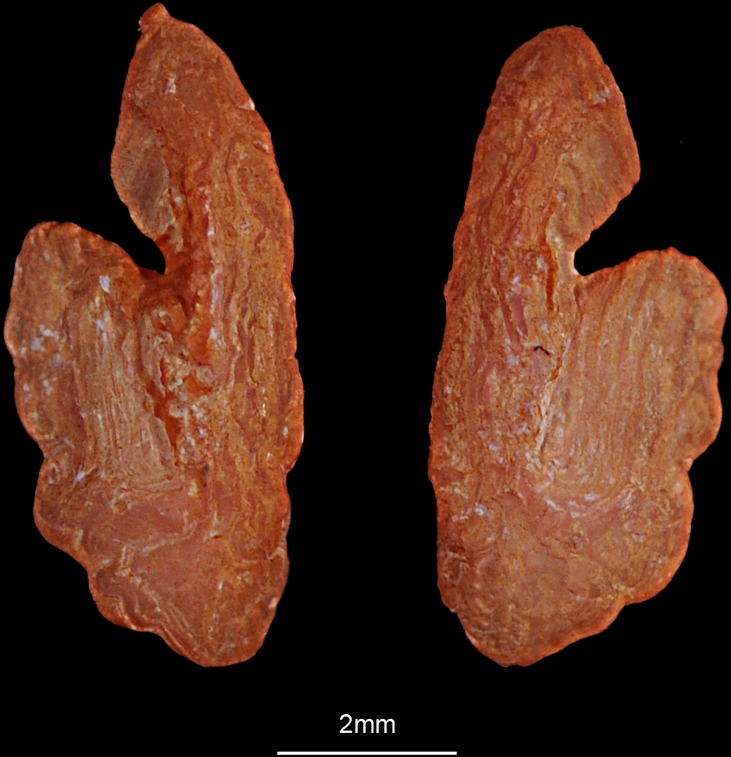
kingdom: Animalia
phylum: Chordata
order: Scorpaeniformes
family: Cottidae
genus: Taurulus
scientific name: Taurulus bubalis
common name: Sea scorpion
